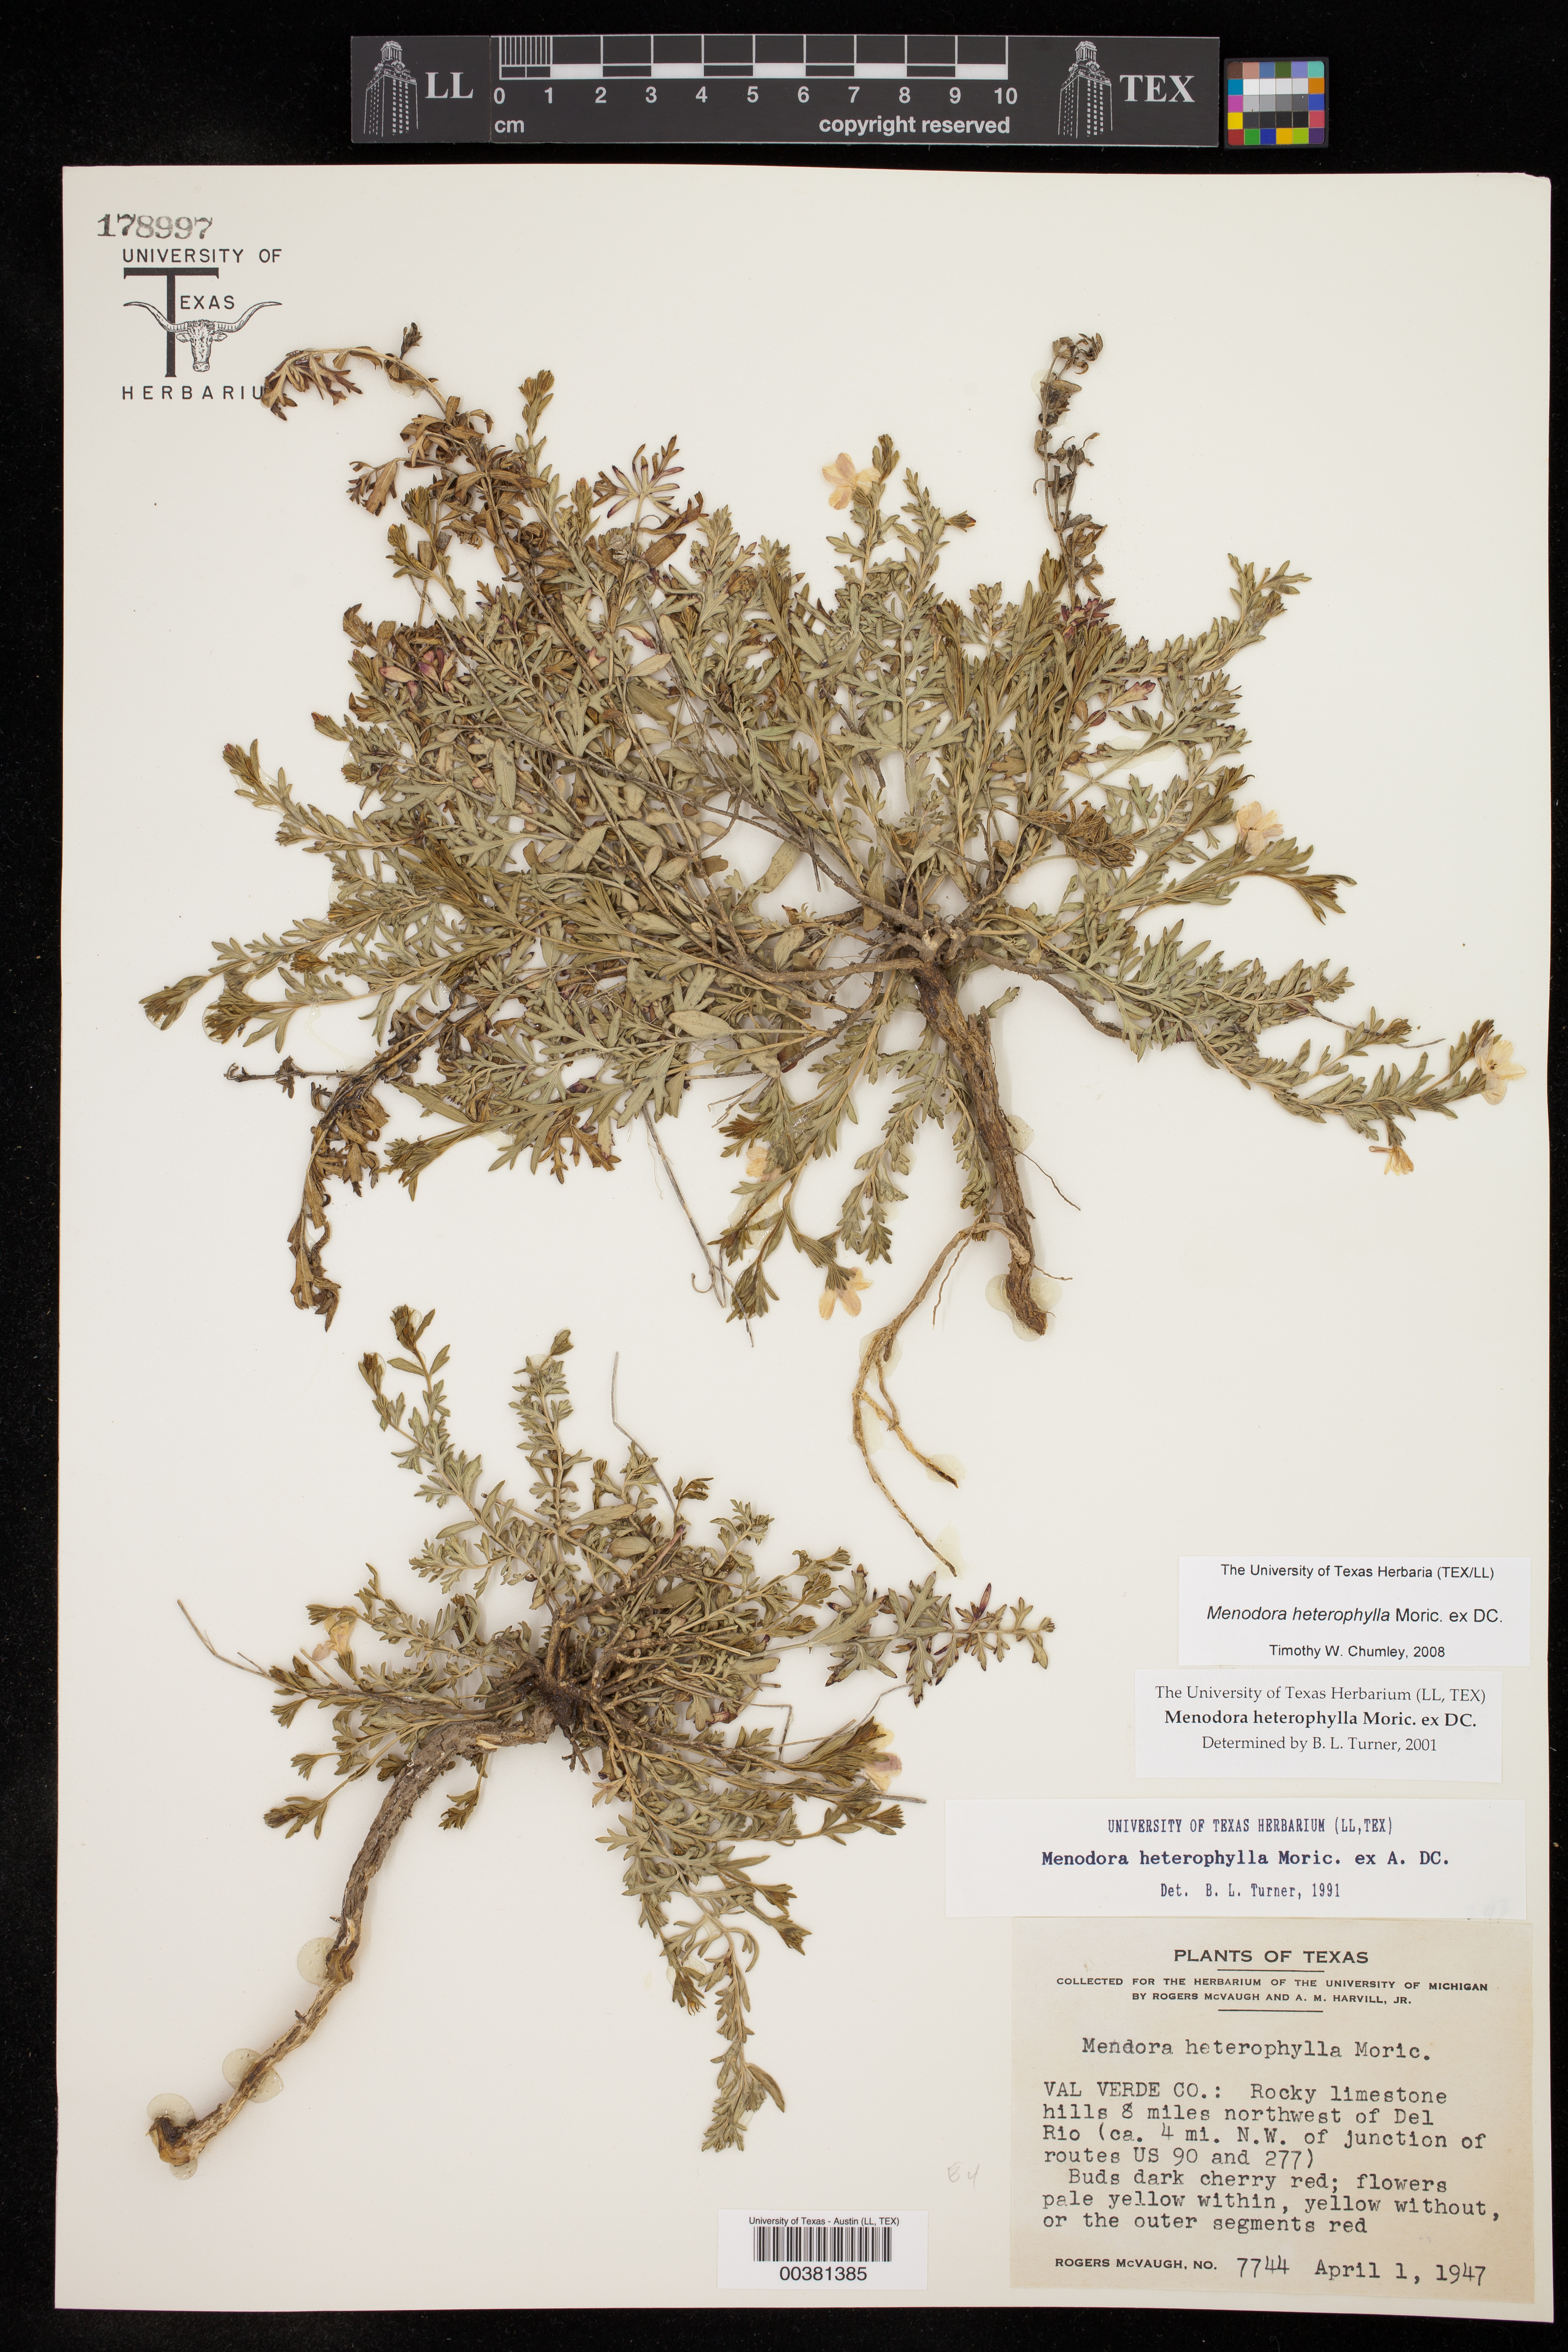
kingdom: Plantae
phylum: Tracheophyta
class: Magnoliopsida
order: Lamiales
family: Oleaceae
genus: Menodora
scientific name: Menodora heterophylla
